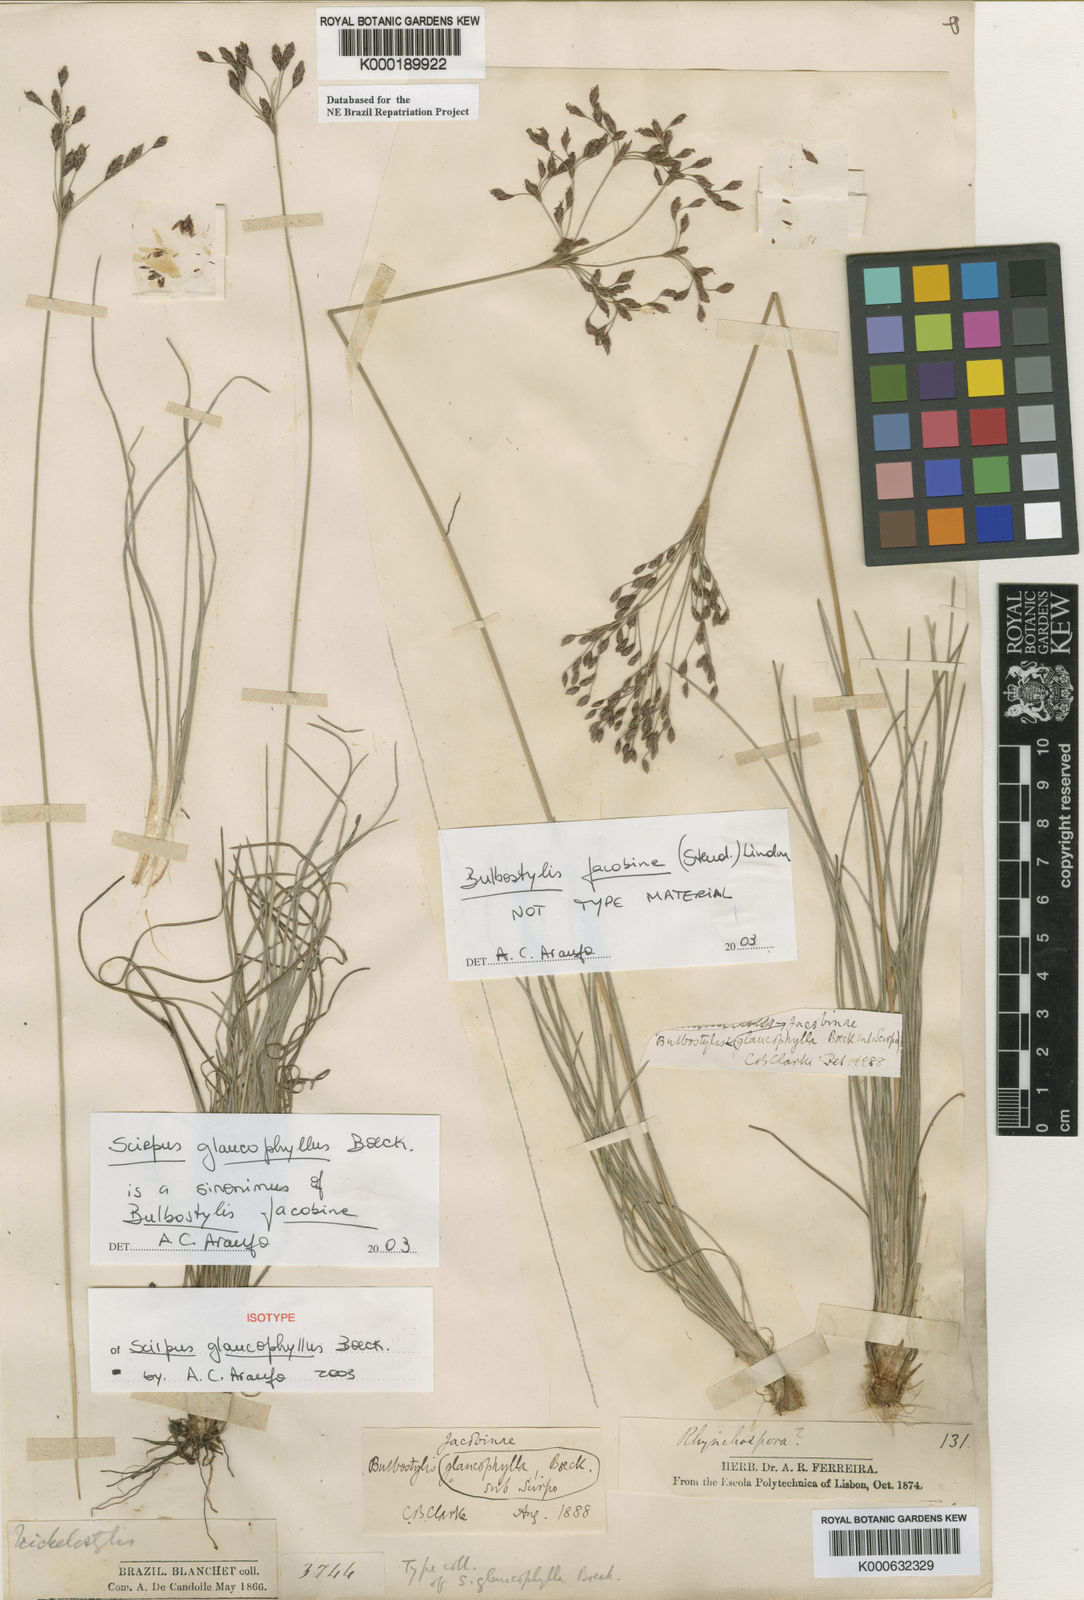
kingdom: Plantae
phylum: Tracheophyta
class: Liliopsida
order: Poales
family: Cyperaceae
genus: Bulbostylis
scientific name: Bulbostylis jacobinae
